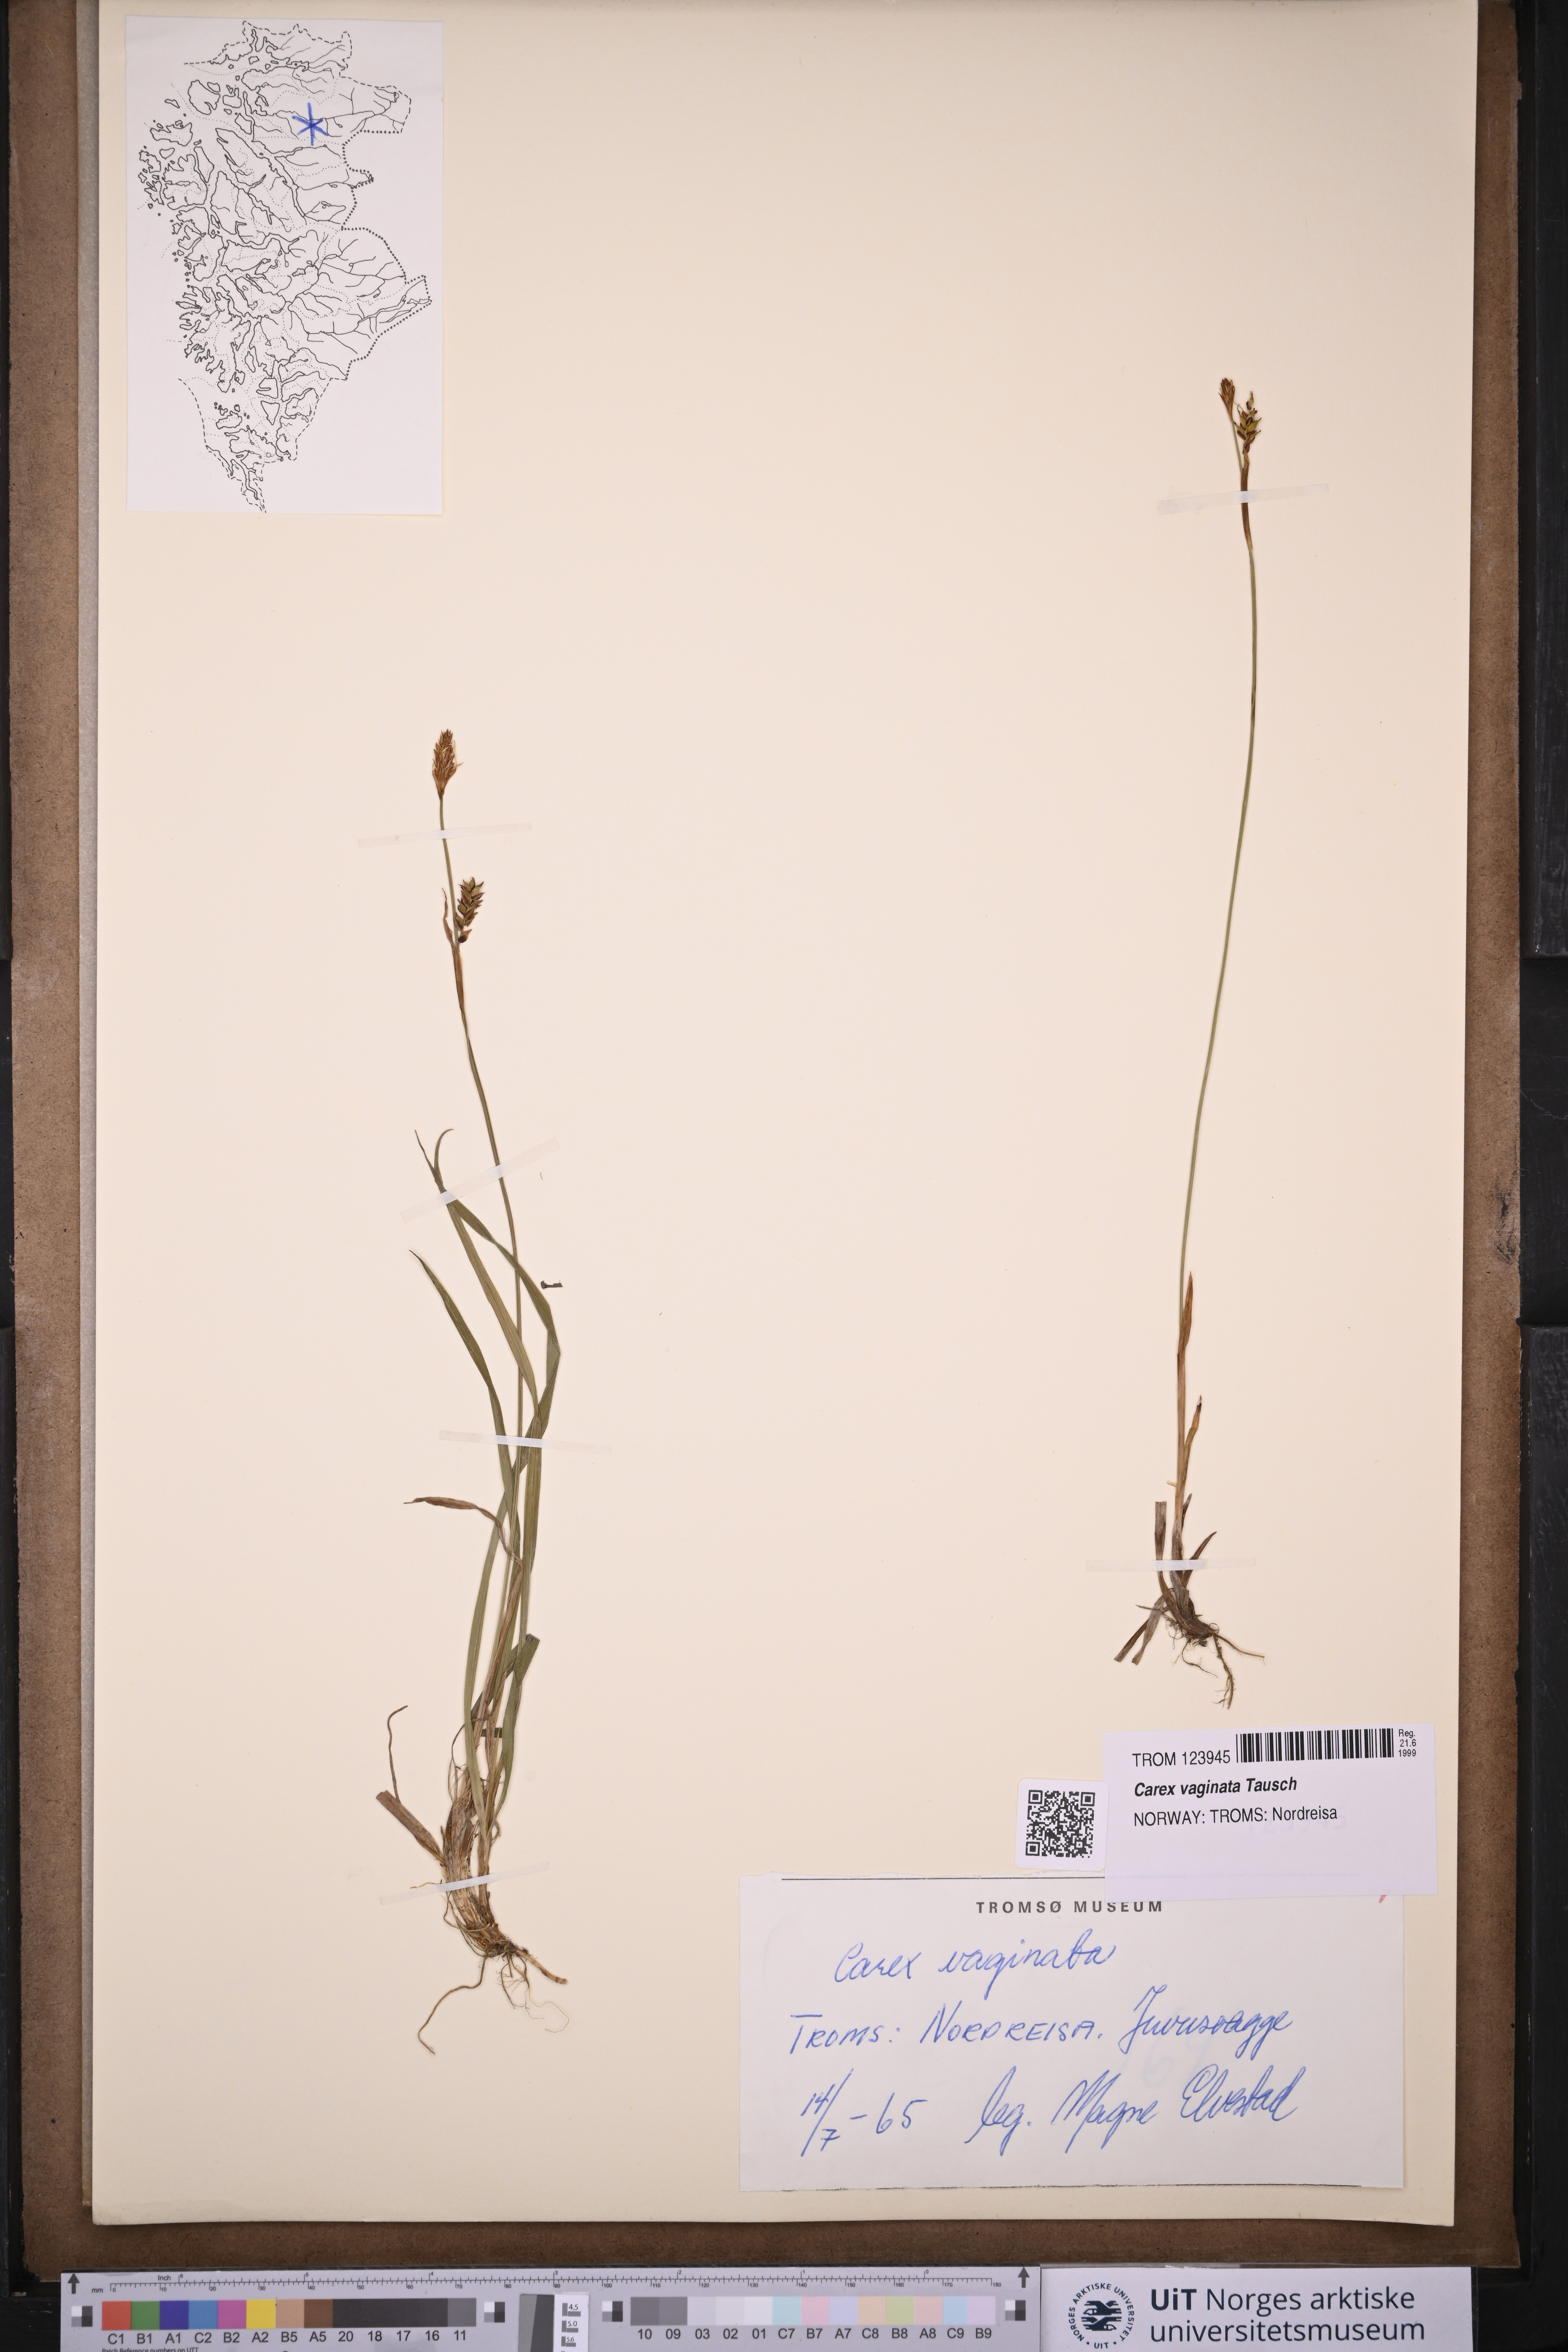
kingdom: Plantae
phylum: Tracheophyta
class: Liliopsida
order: Poales
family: Cyperaceae
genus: Carex
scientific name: Carex vaginata
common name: Sheathed sedge
